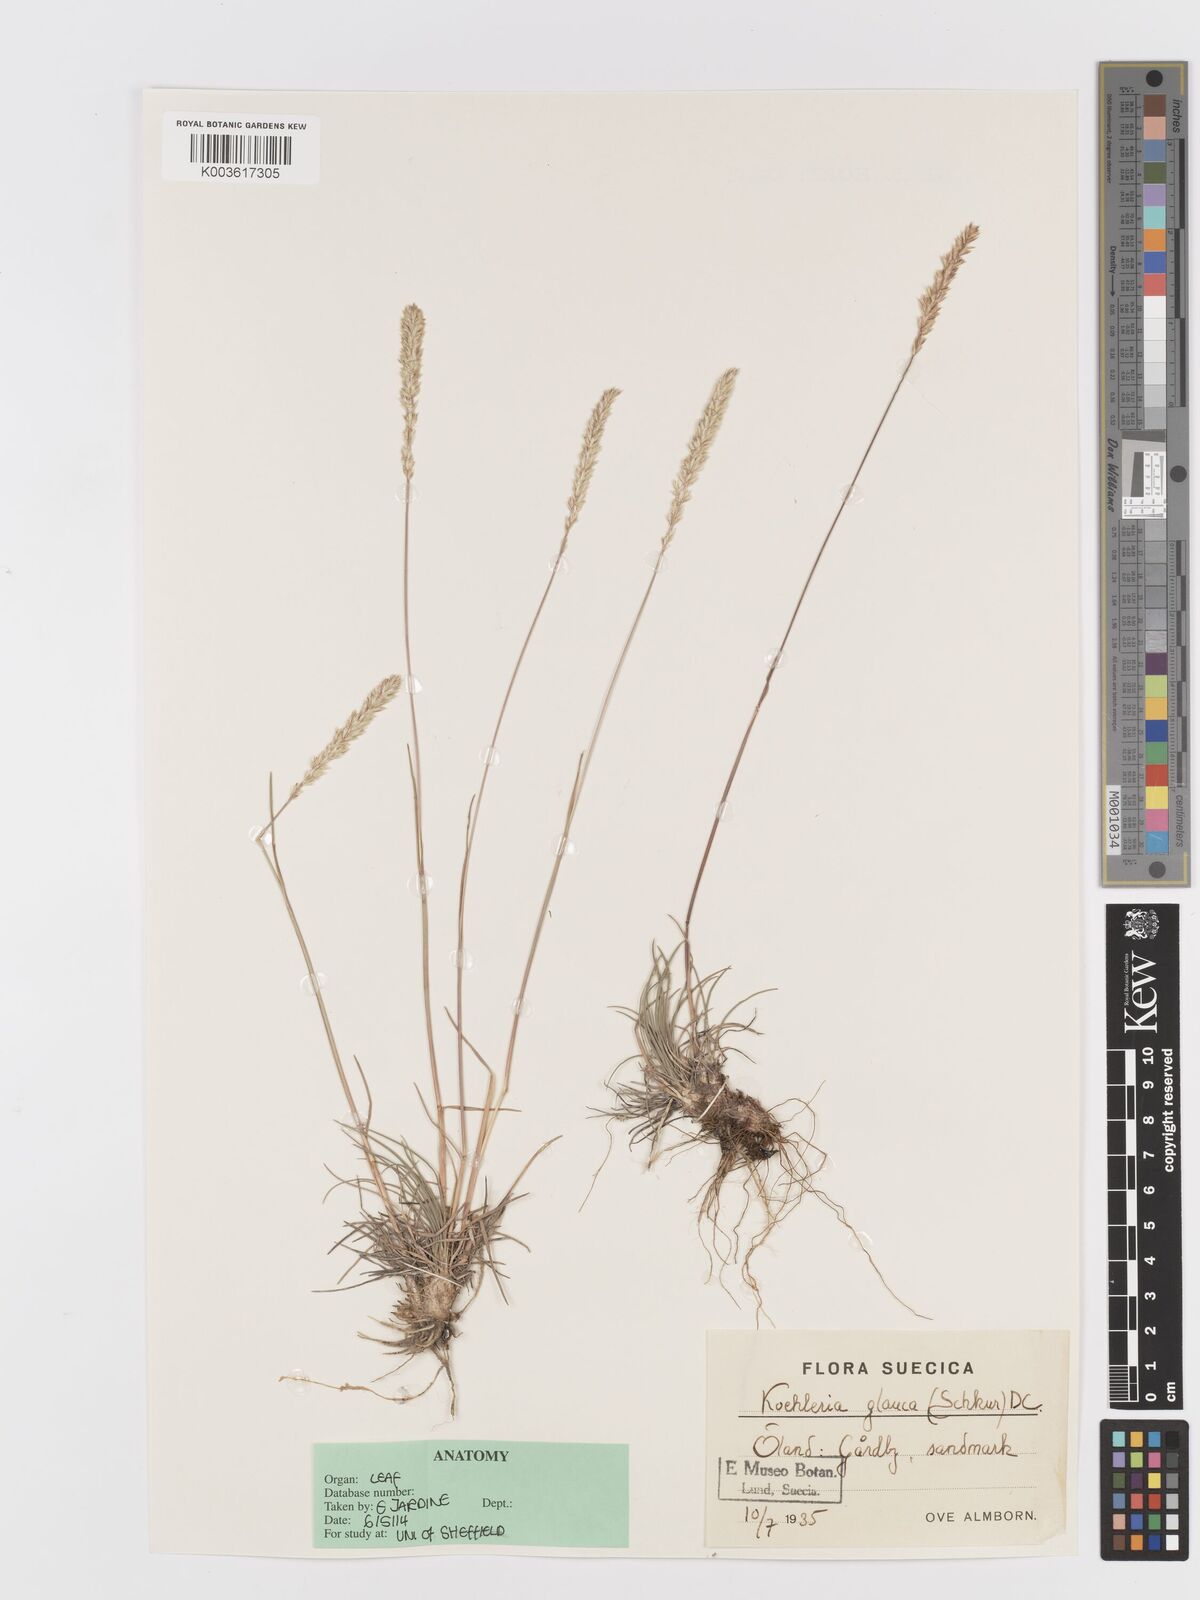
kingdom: Plantae
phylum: Tracheophyta
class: Liliopsida
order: Poales
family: Poaceae
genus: Koeleria
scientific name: Koeleria glauca
